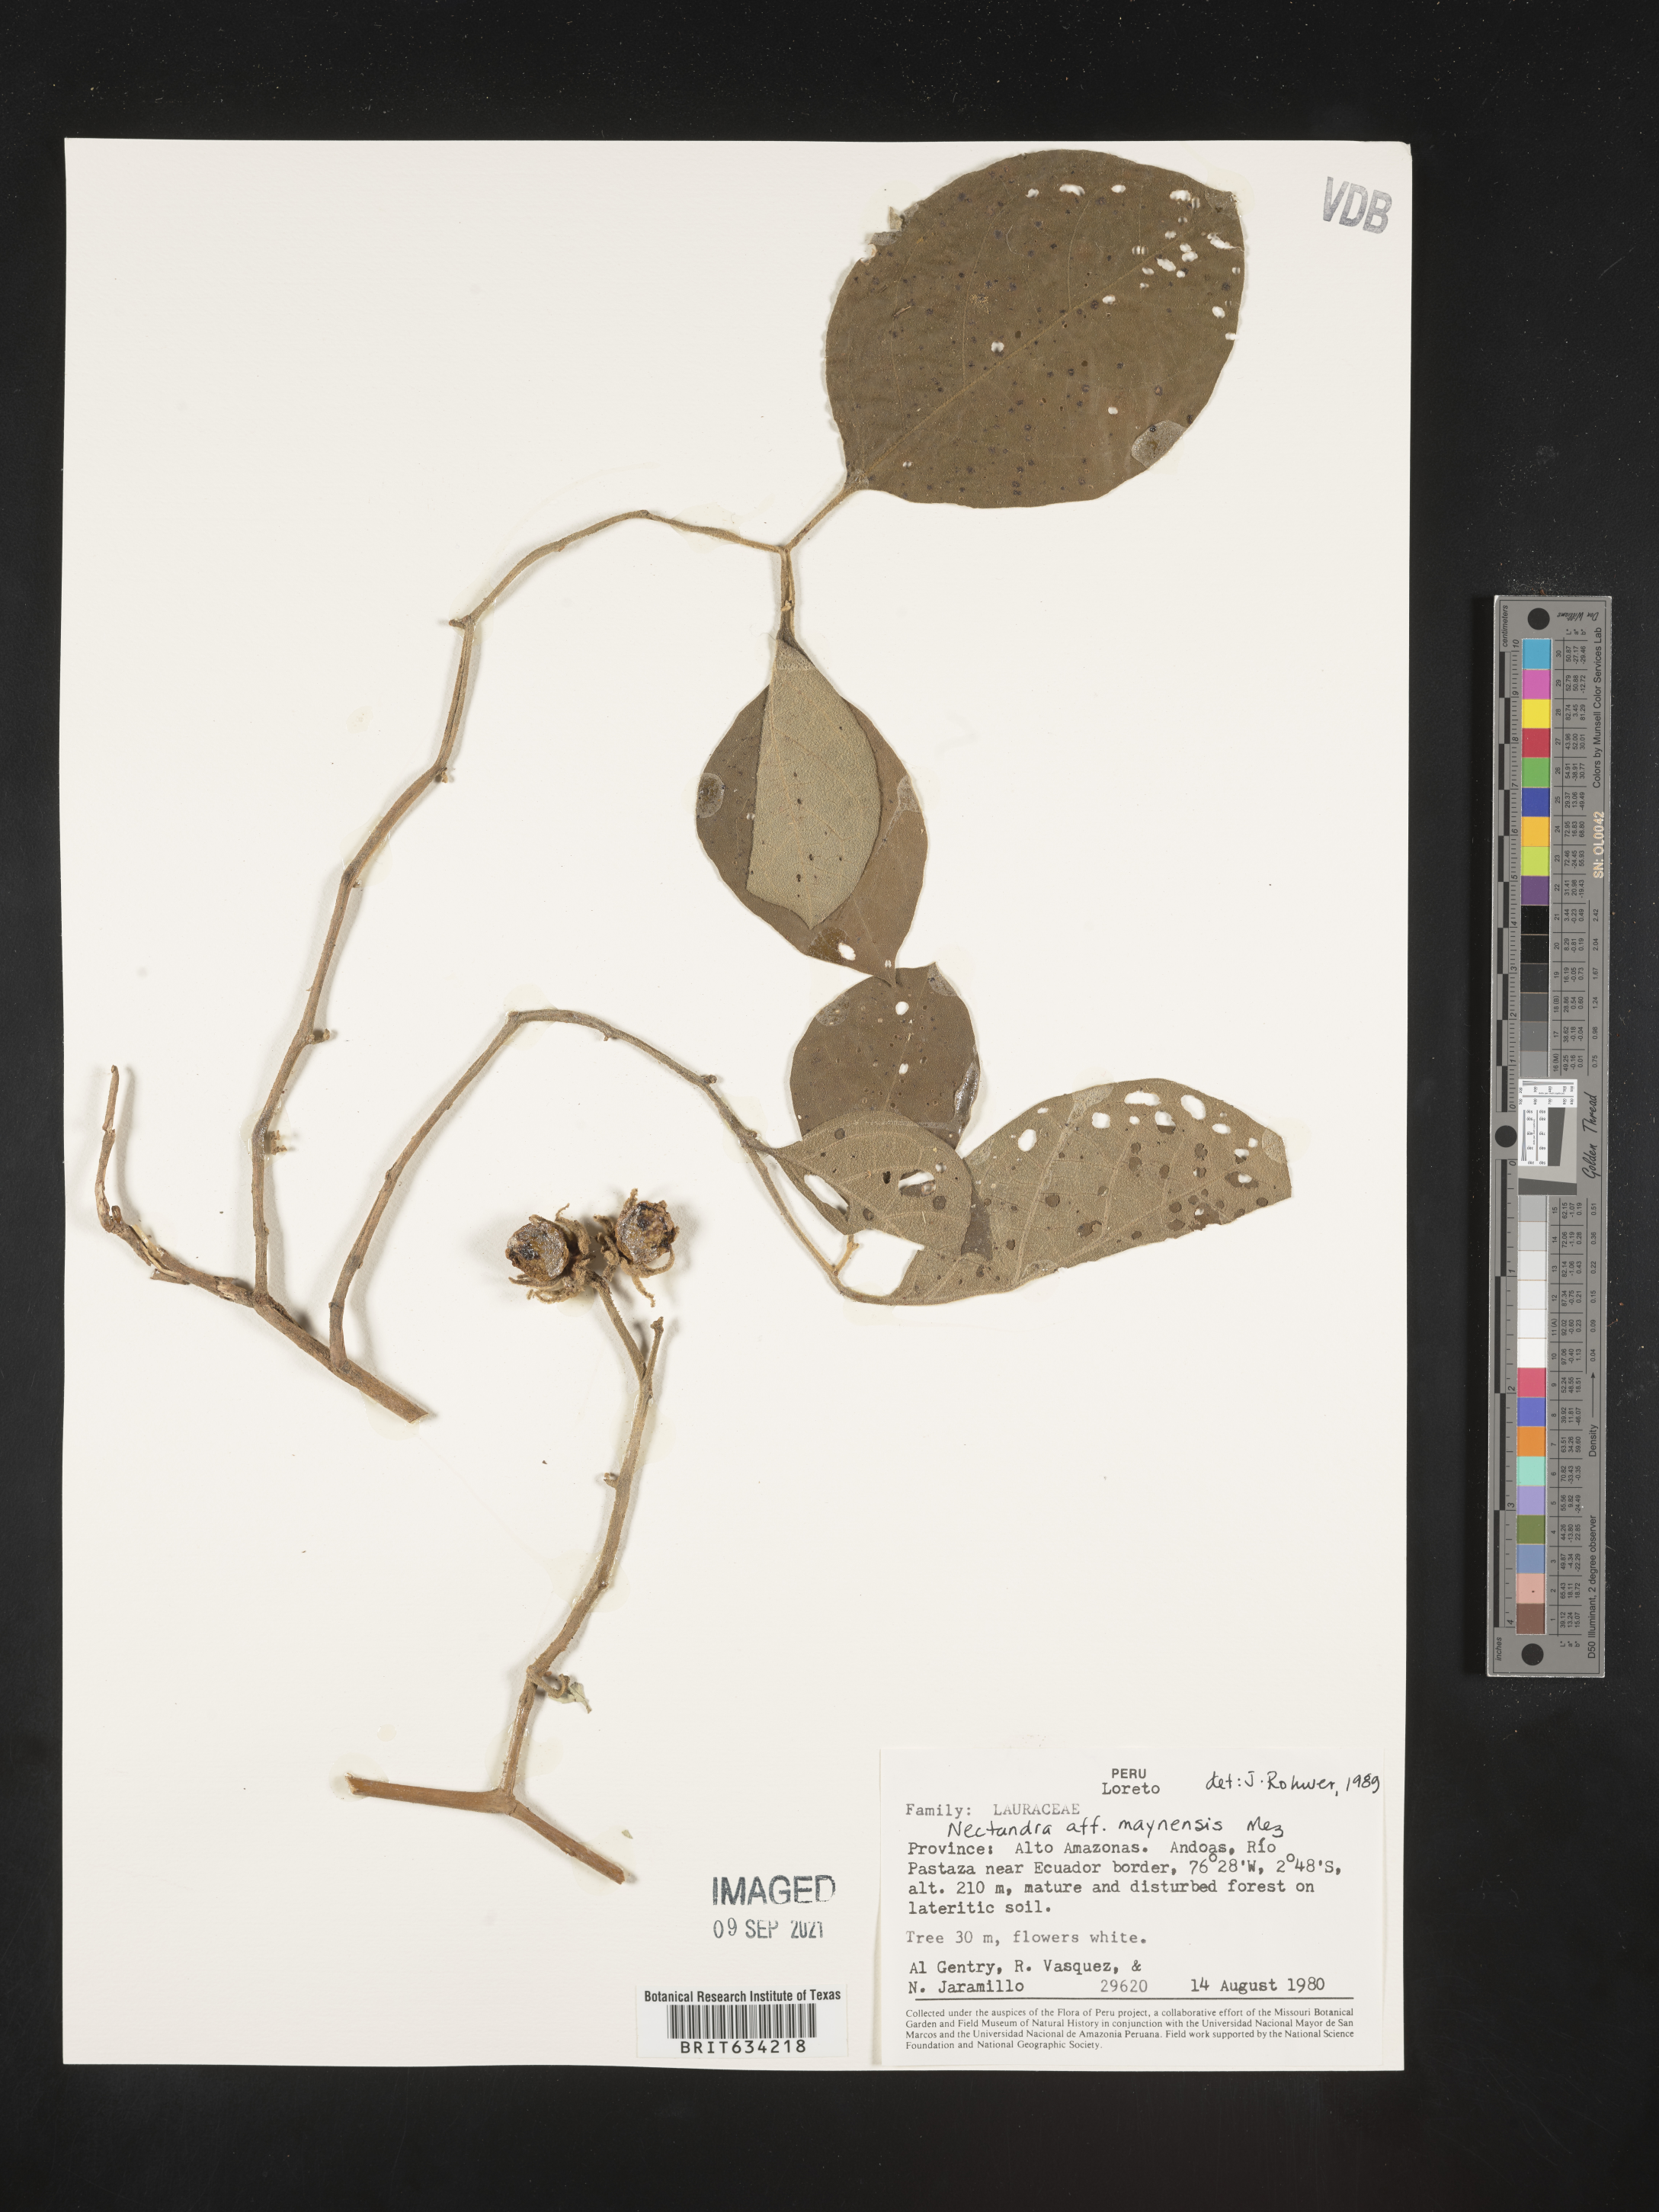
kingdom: Plantae
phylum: Tracheophyta
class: Magnoliopsida
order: Laurales
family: Lauraceae
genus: Nectandra
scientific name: Nectandra
